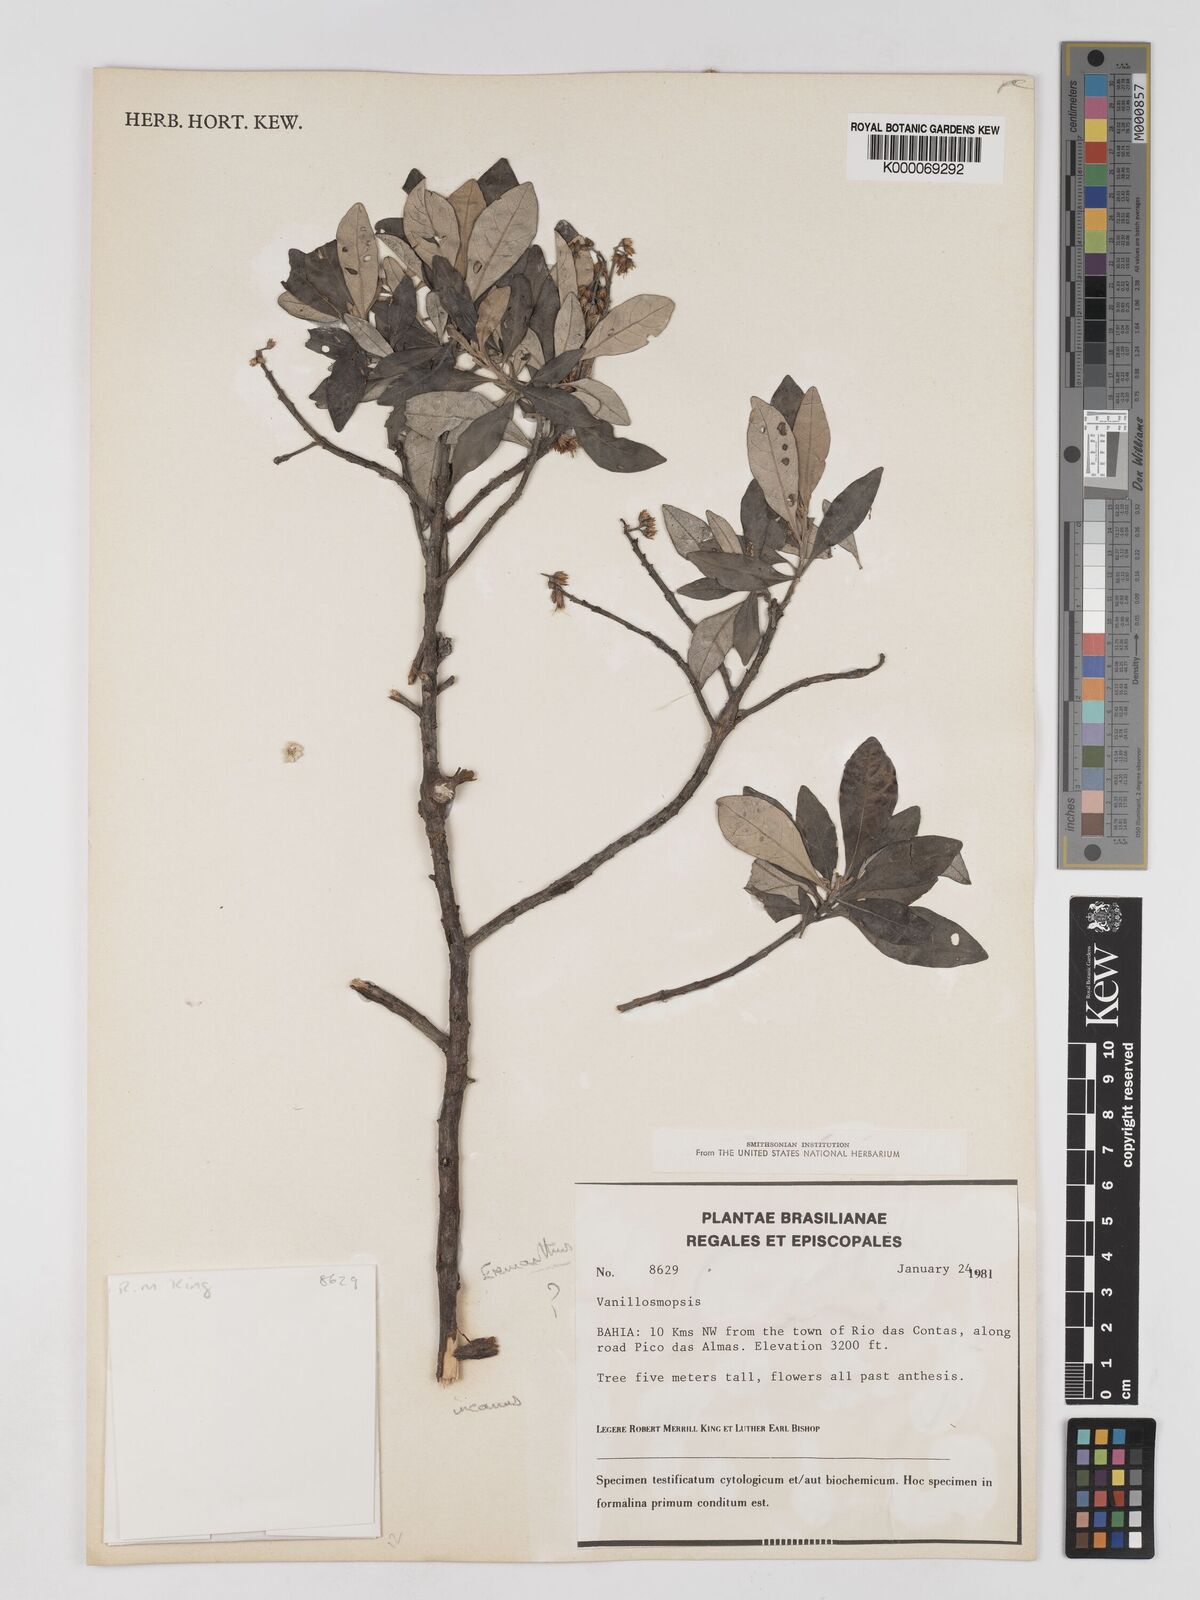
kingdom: Plantae
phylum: Tracheophyta
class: Magnoliopsida
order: Asterales
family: Asteraceae
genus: Eremanthus
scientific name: Eremanthus
